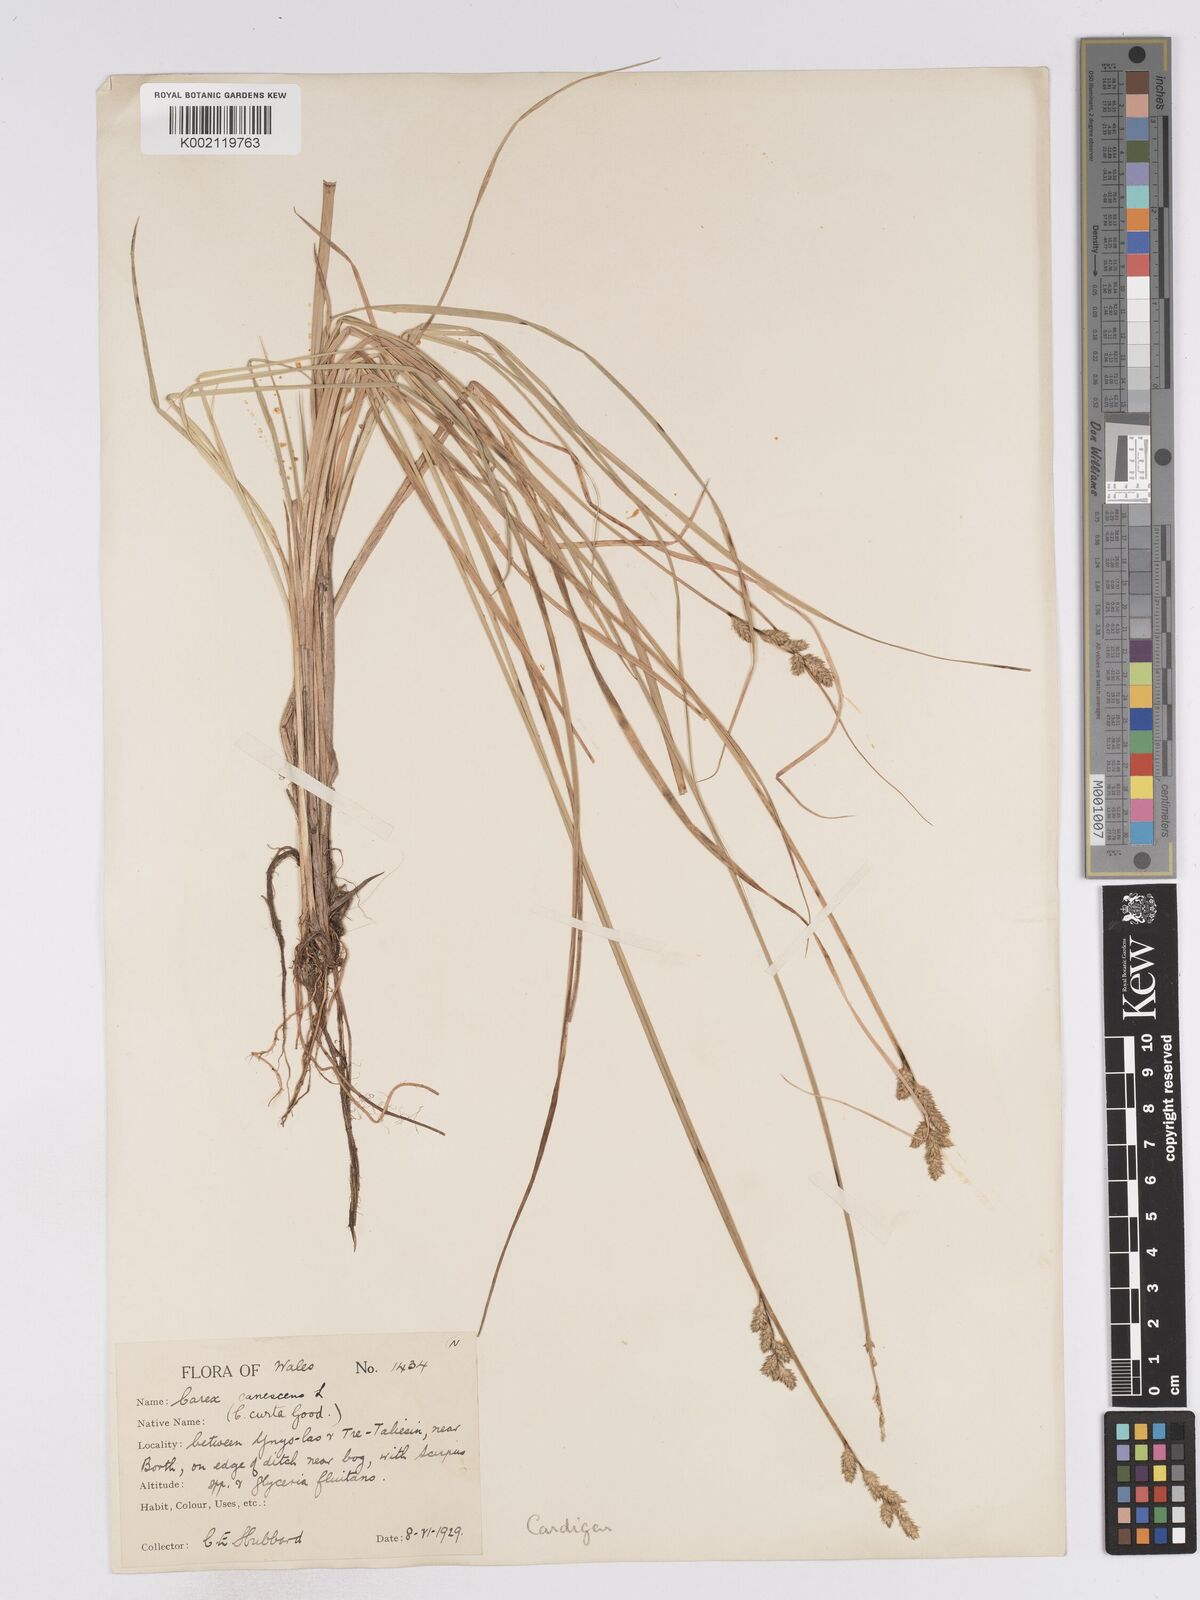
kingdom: Plantae
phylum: Tracheophyta
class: Liliopsida
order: Poales
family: Cyperaceae
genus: Carex
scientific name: Carex curta
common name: White sedge
